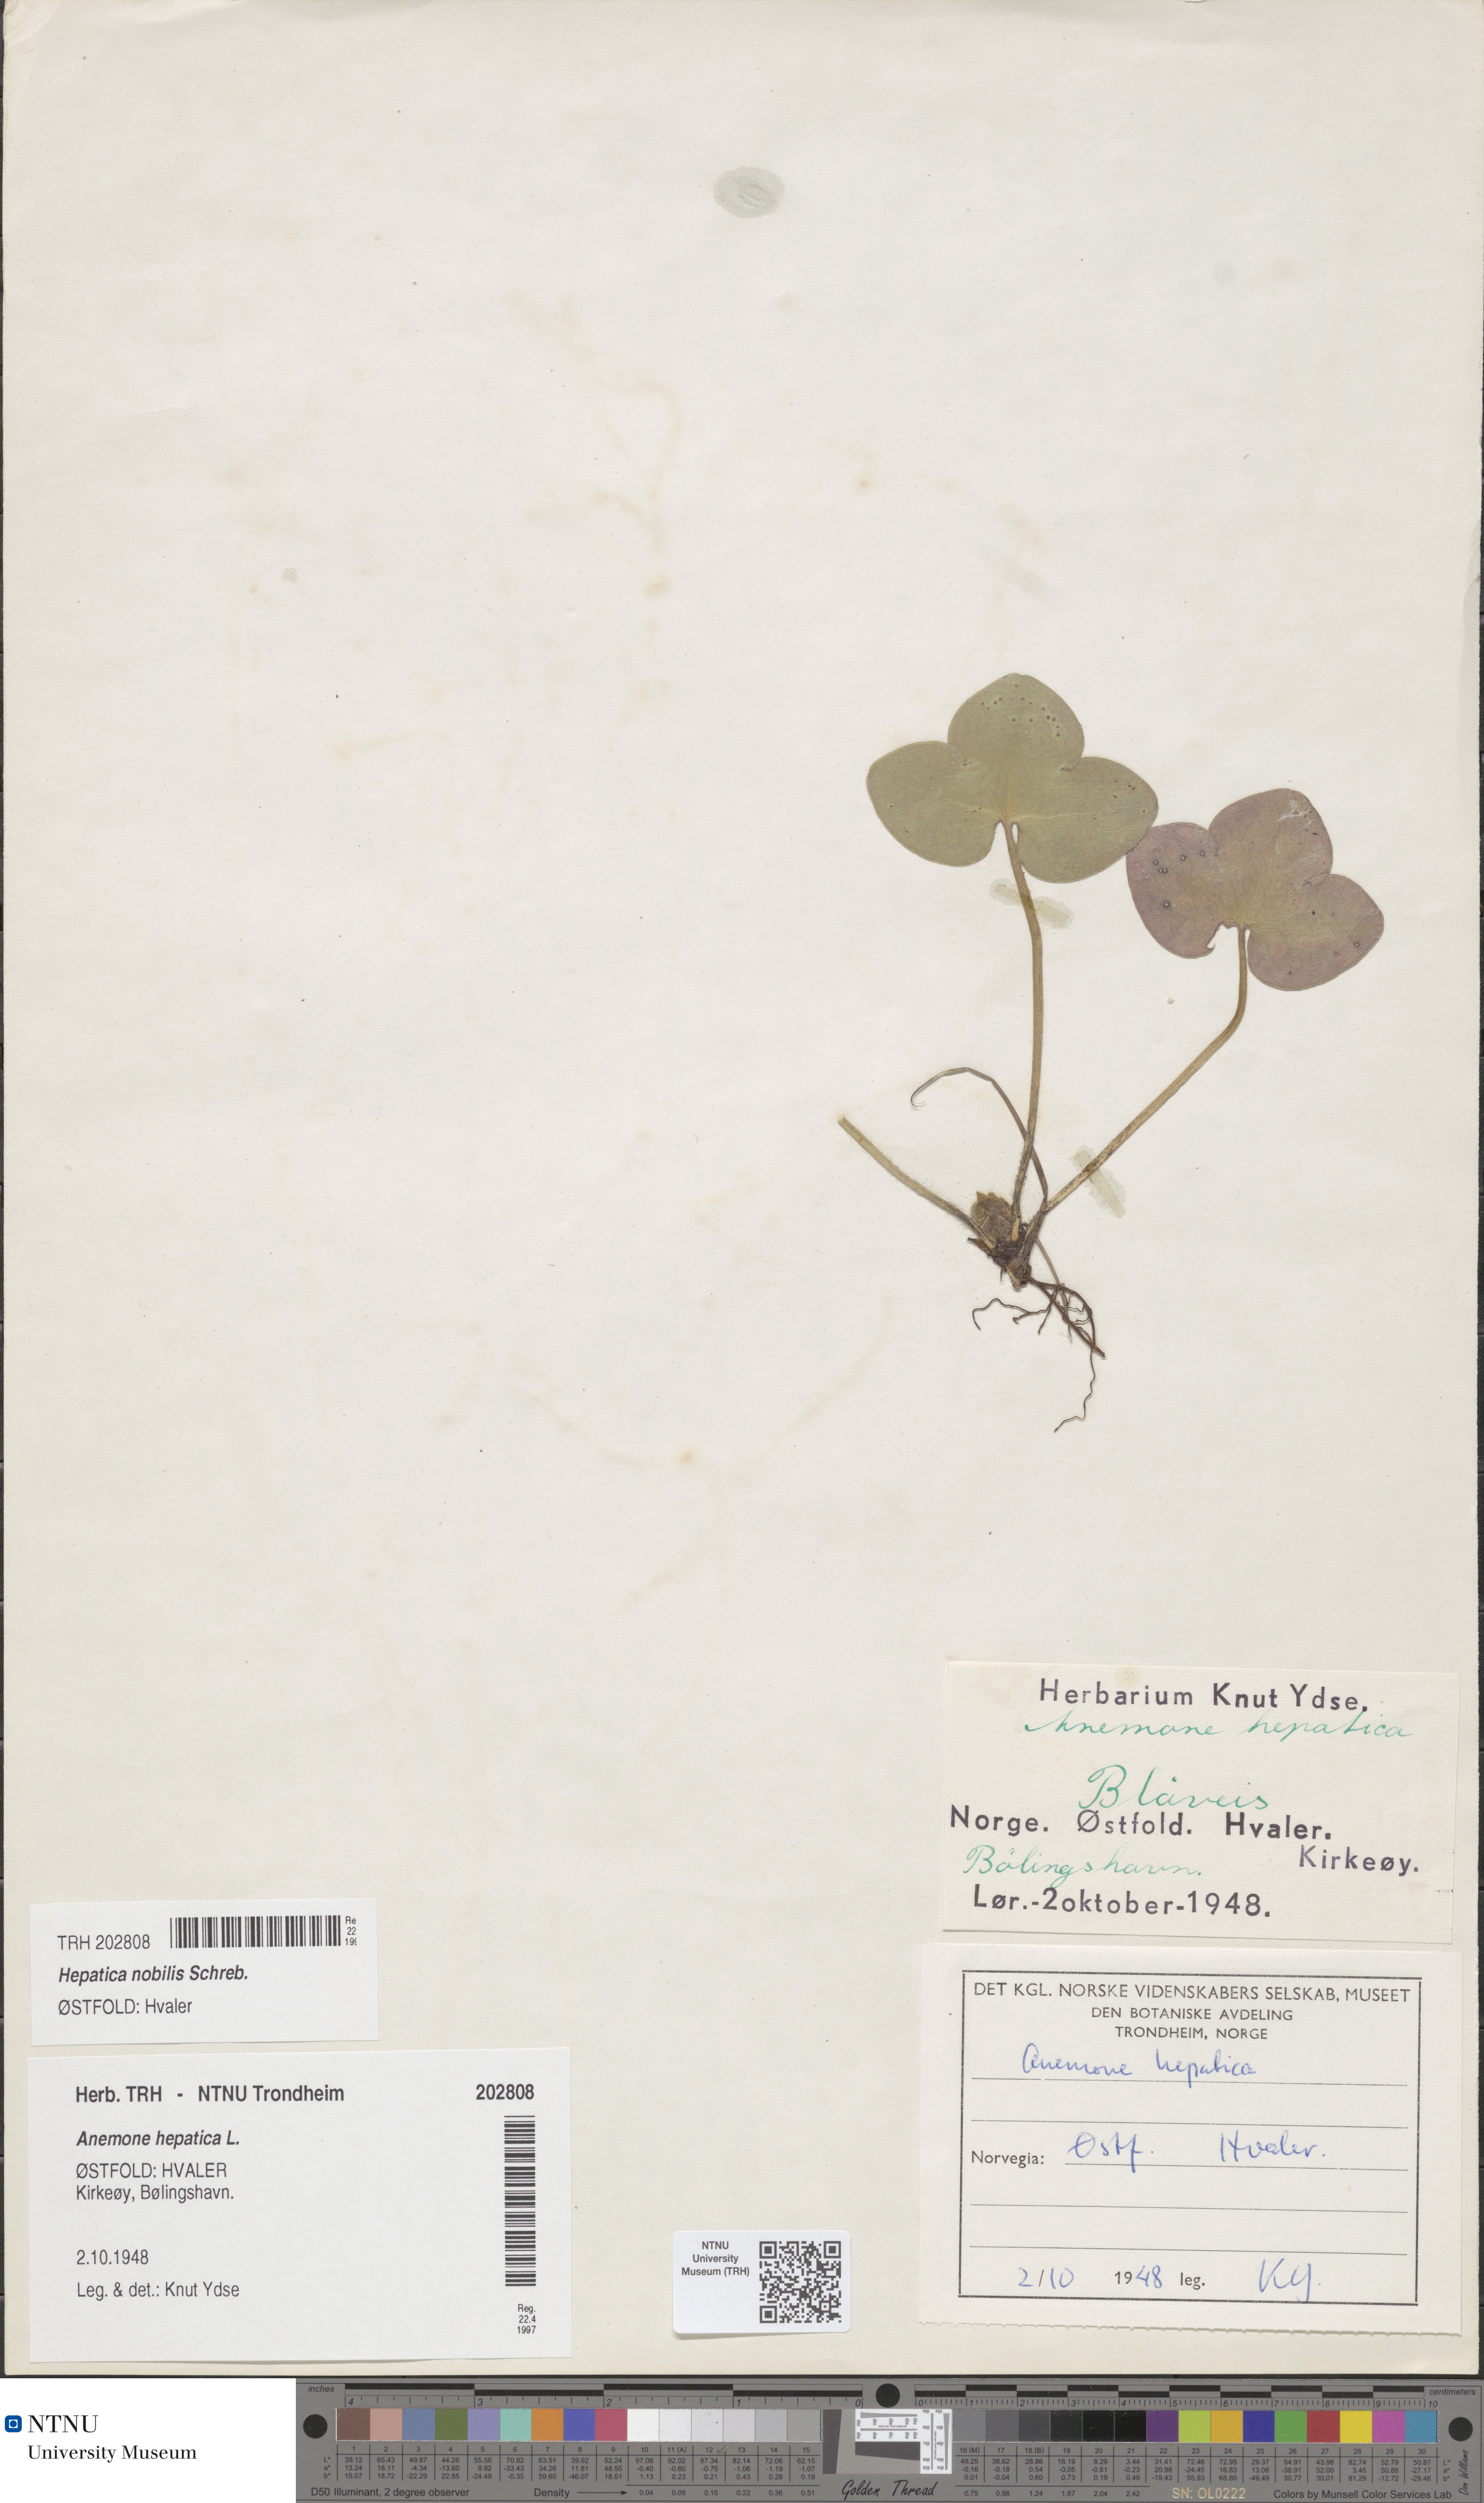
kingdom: Plantae
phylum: Tracheophyta
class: Magnoliopsida
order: Ranunculales
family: Ranunculaceae
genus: Hepatica
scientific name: Hepatica nobilis
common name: Liverleaf
